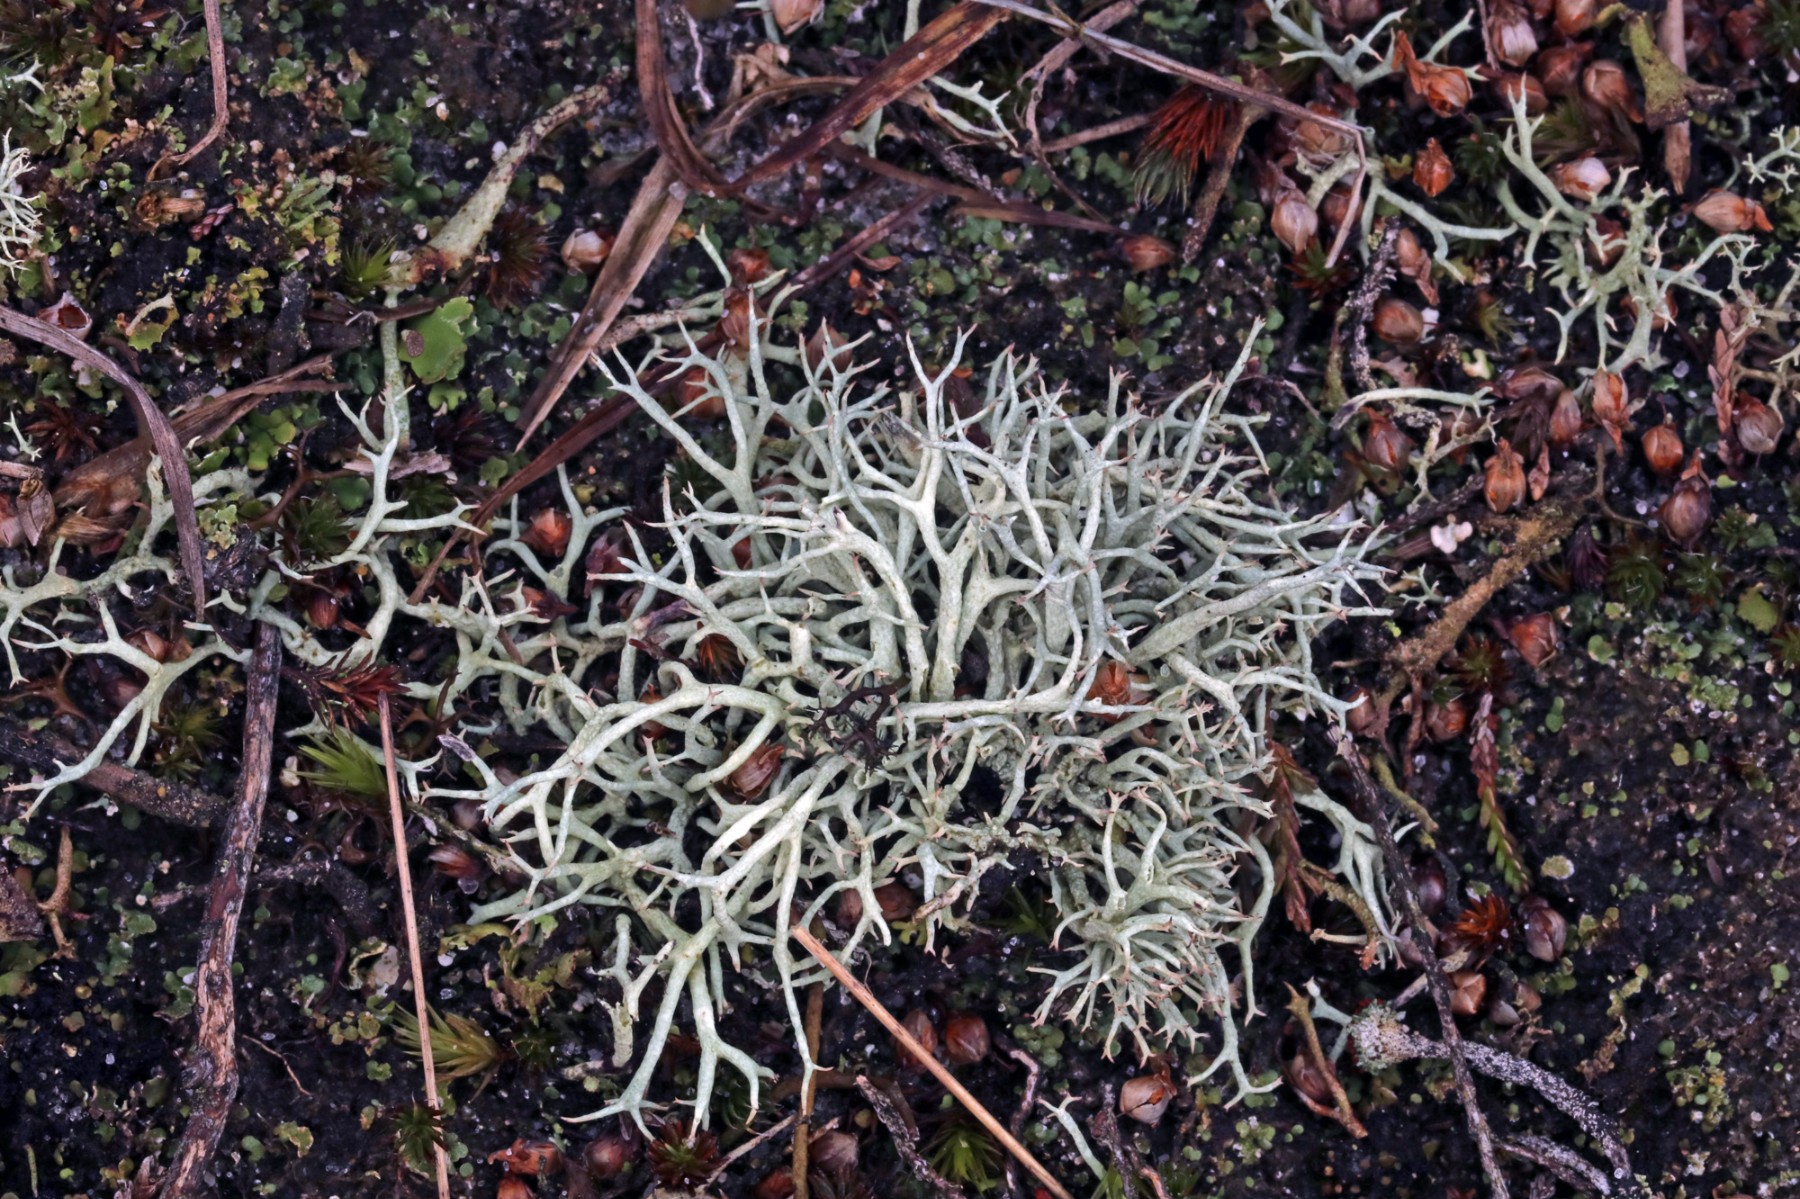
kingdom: Fungi
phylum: Ascomycota
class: Lecanoromycetes
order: Lecanorales
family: Cladoniaceae
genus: Cladonia
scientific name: Cladonia zopfii
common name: klit-bægerlav
